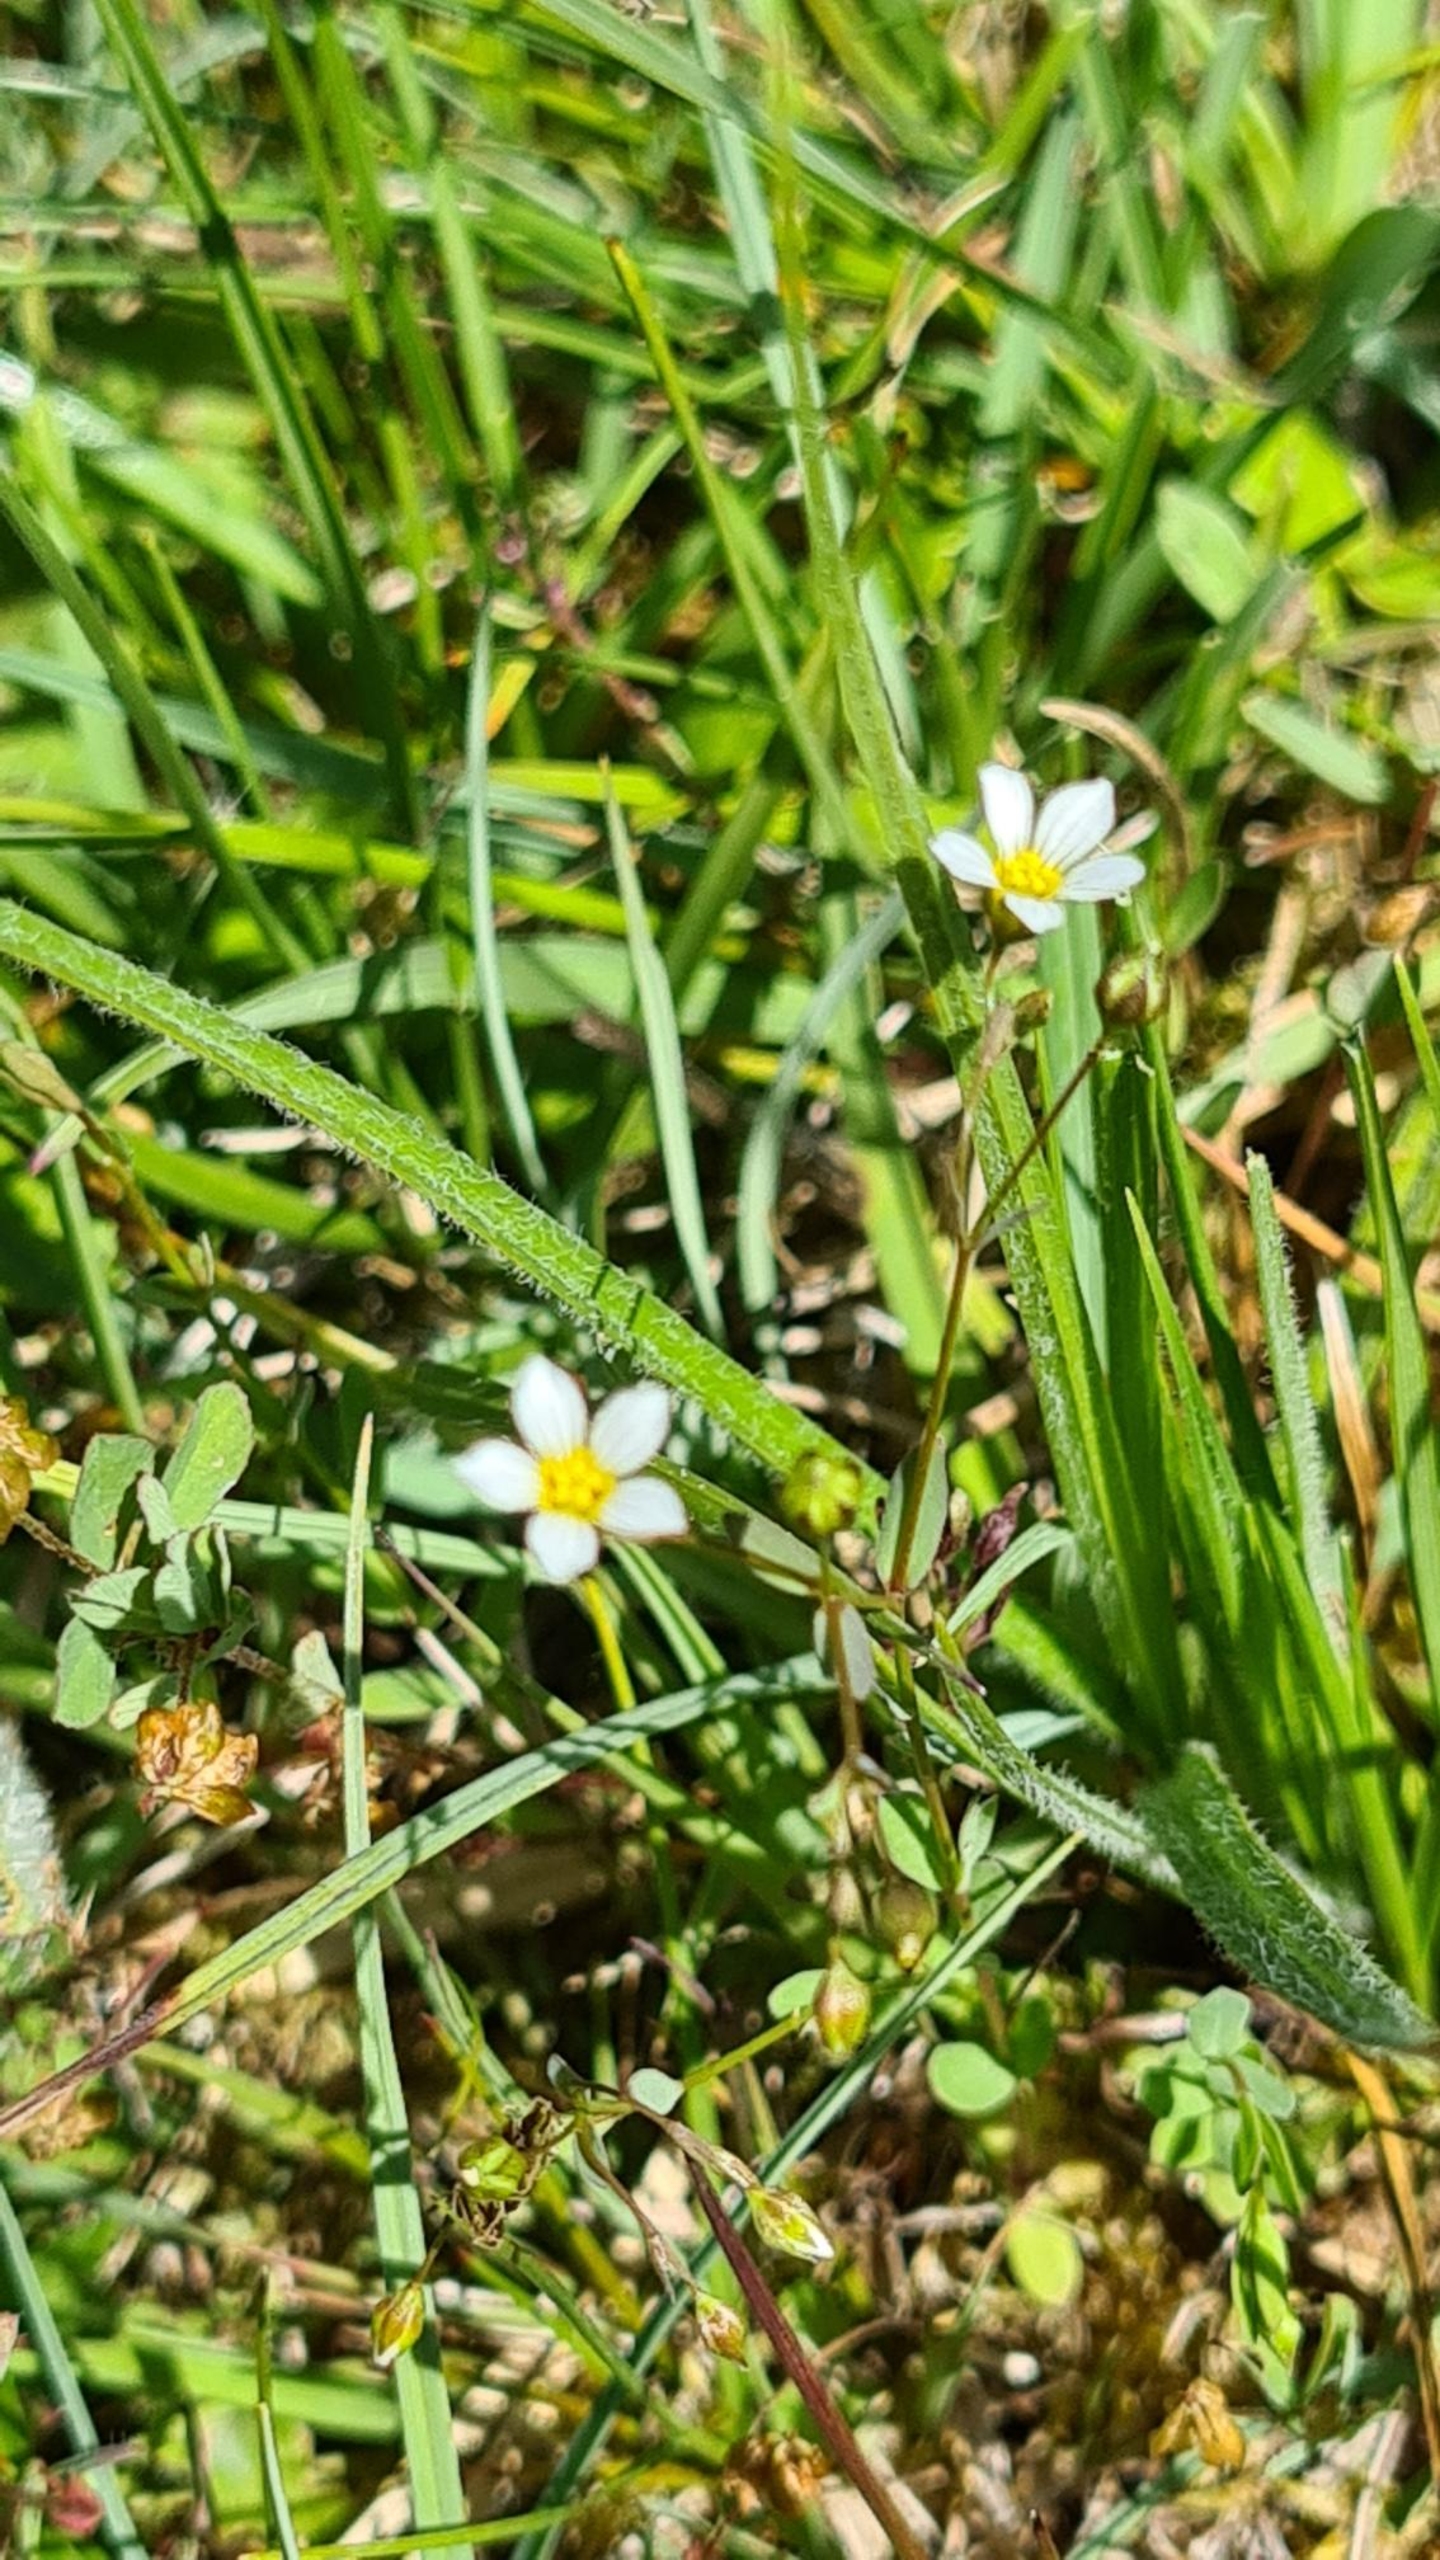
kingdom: Plantae
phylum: Tracheophyta
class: Magnoliopsida
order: Malpighiales
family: Linaceae
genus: Linum
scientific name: Linum catharticum
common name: Vild hør
